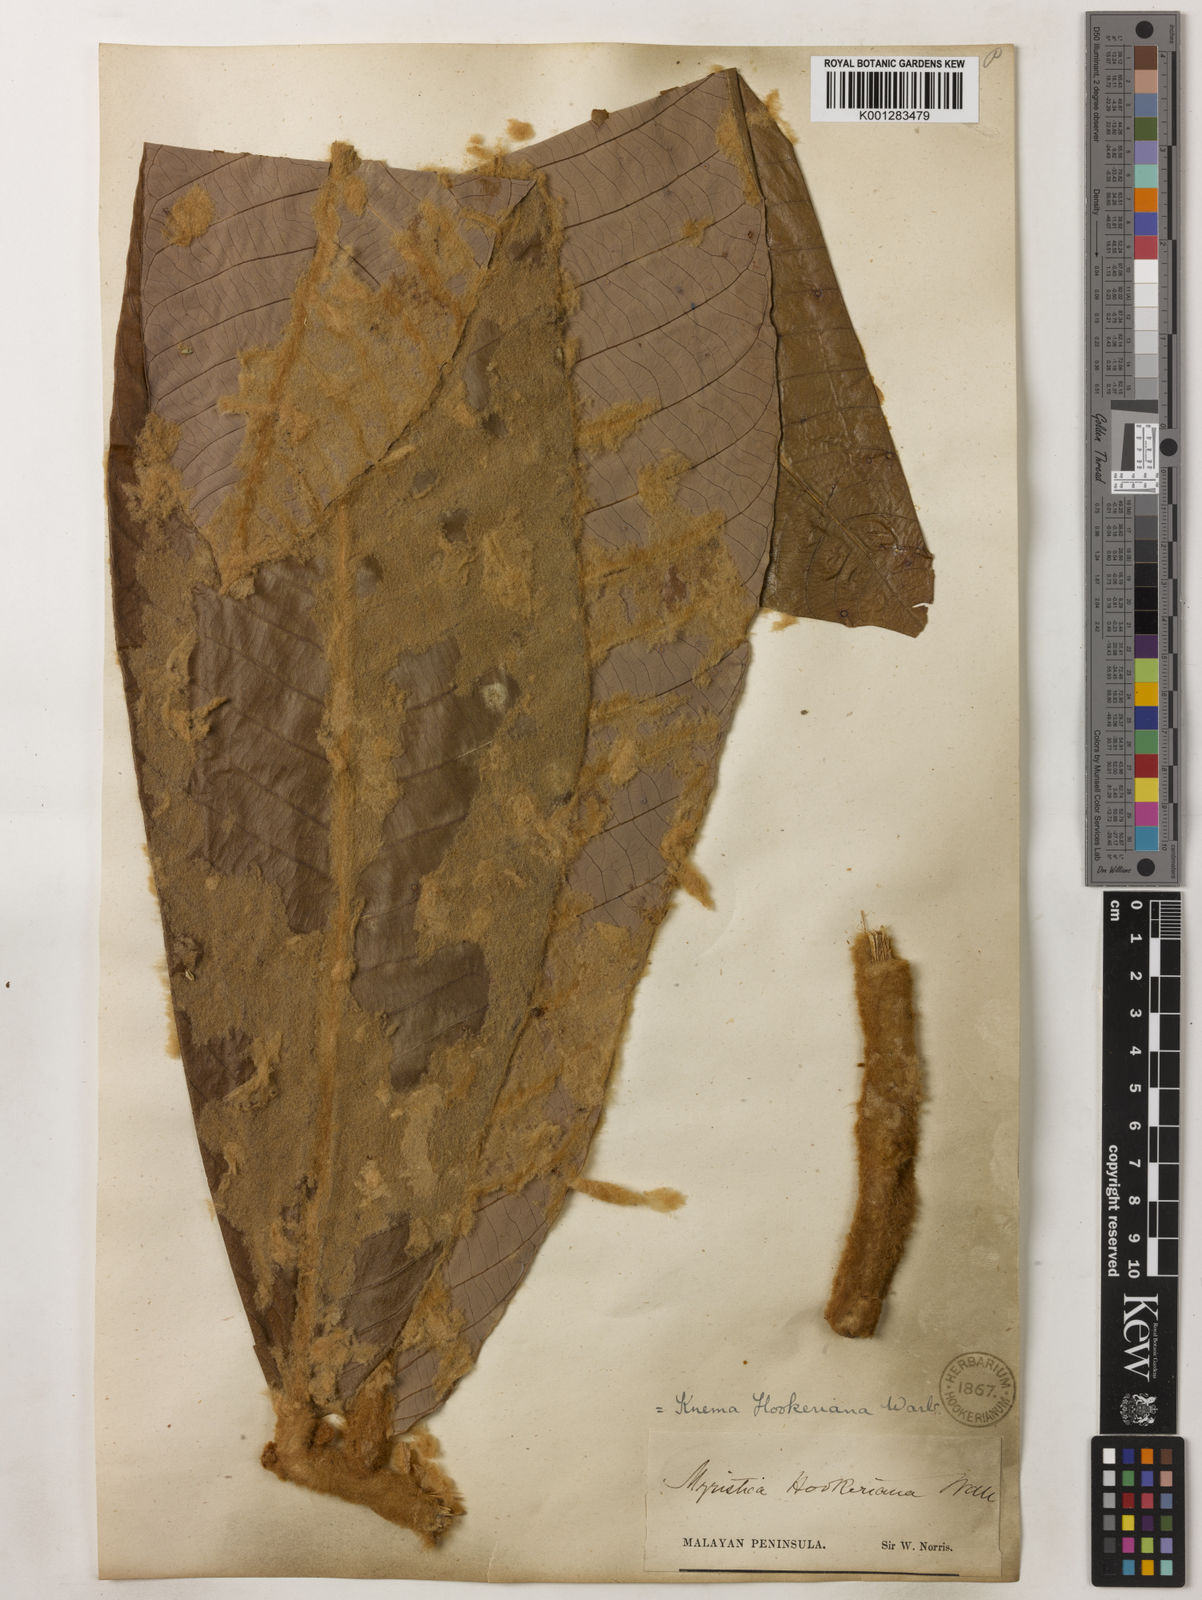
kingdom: Plantae
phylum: Tracheophyta
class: Magnoliopsida
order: Magnoliales
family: Myristicaceae
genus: Knema
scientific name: Knema hookeriana
